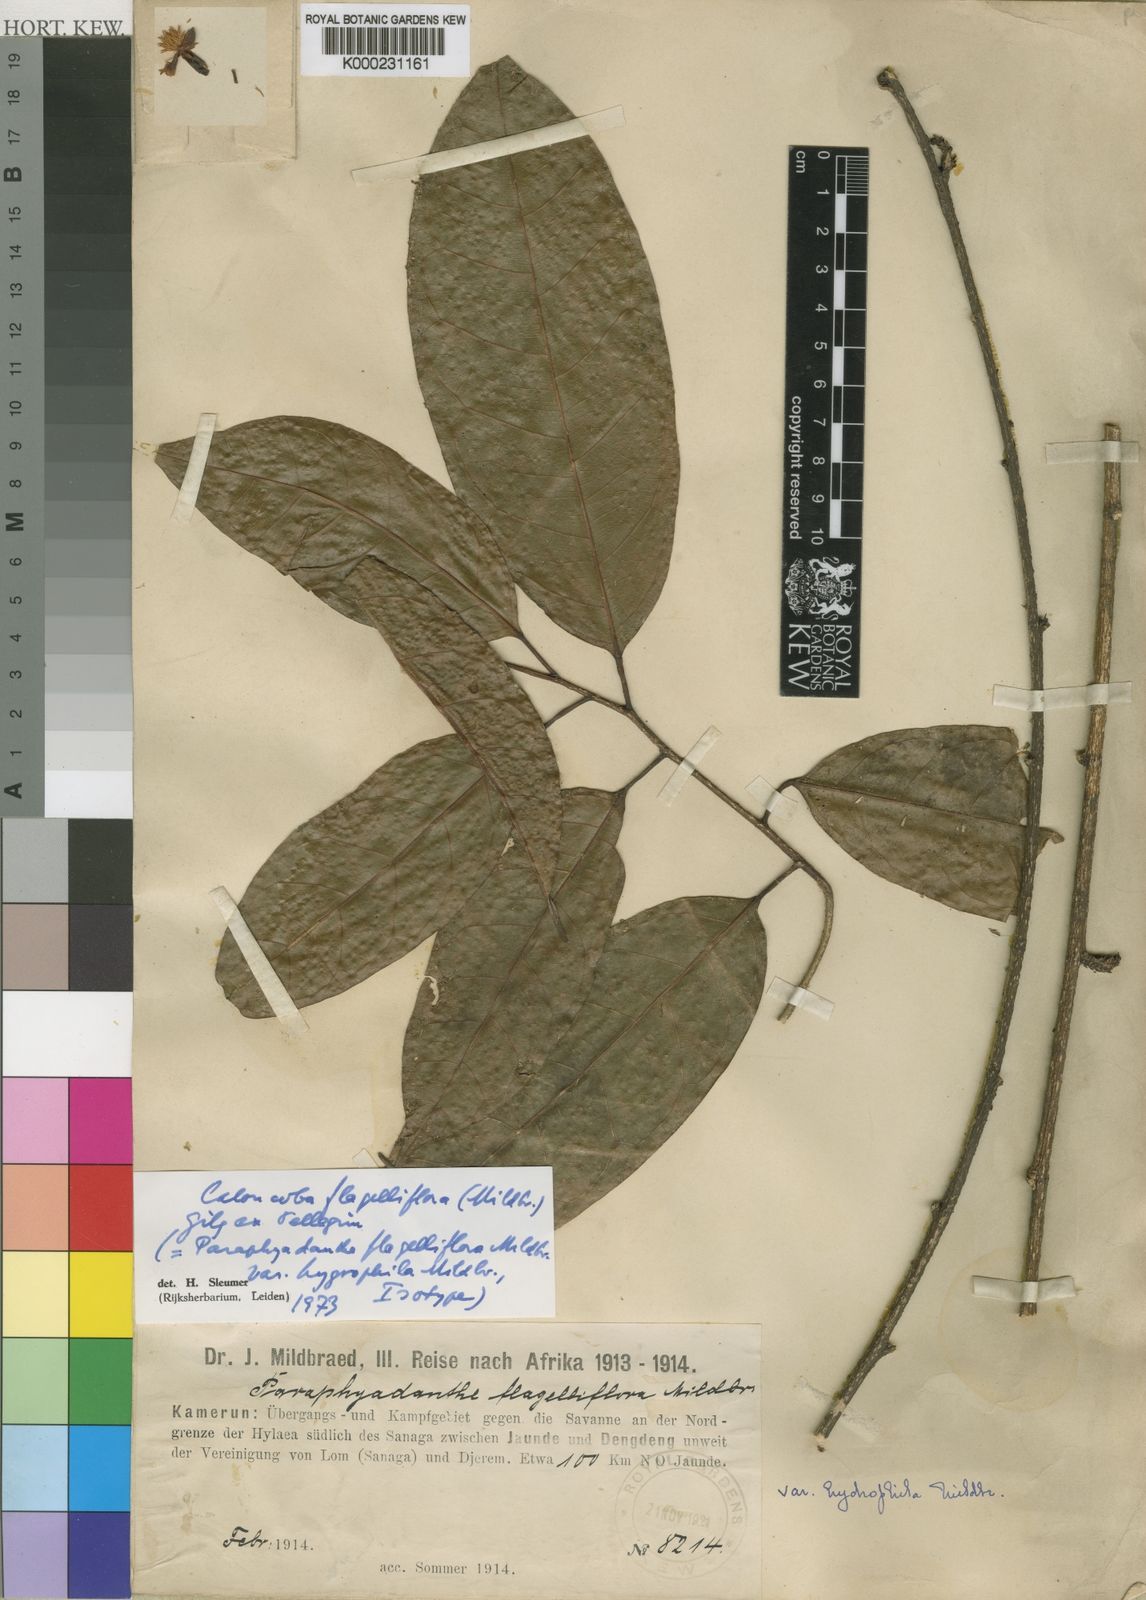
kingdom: Plantae
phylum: Tracheophyta
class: Magnoliopsida
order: Malpighiales
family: Achariaceae
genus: Xylotheca
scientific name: Xylotheca
